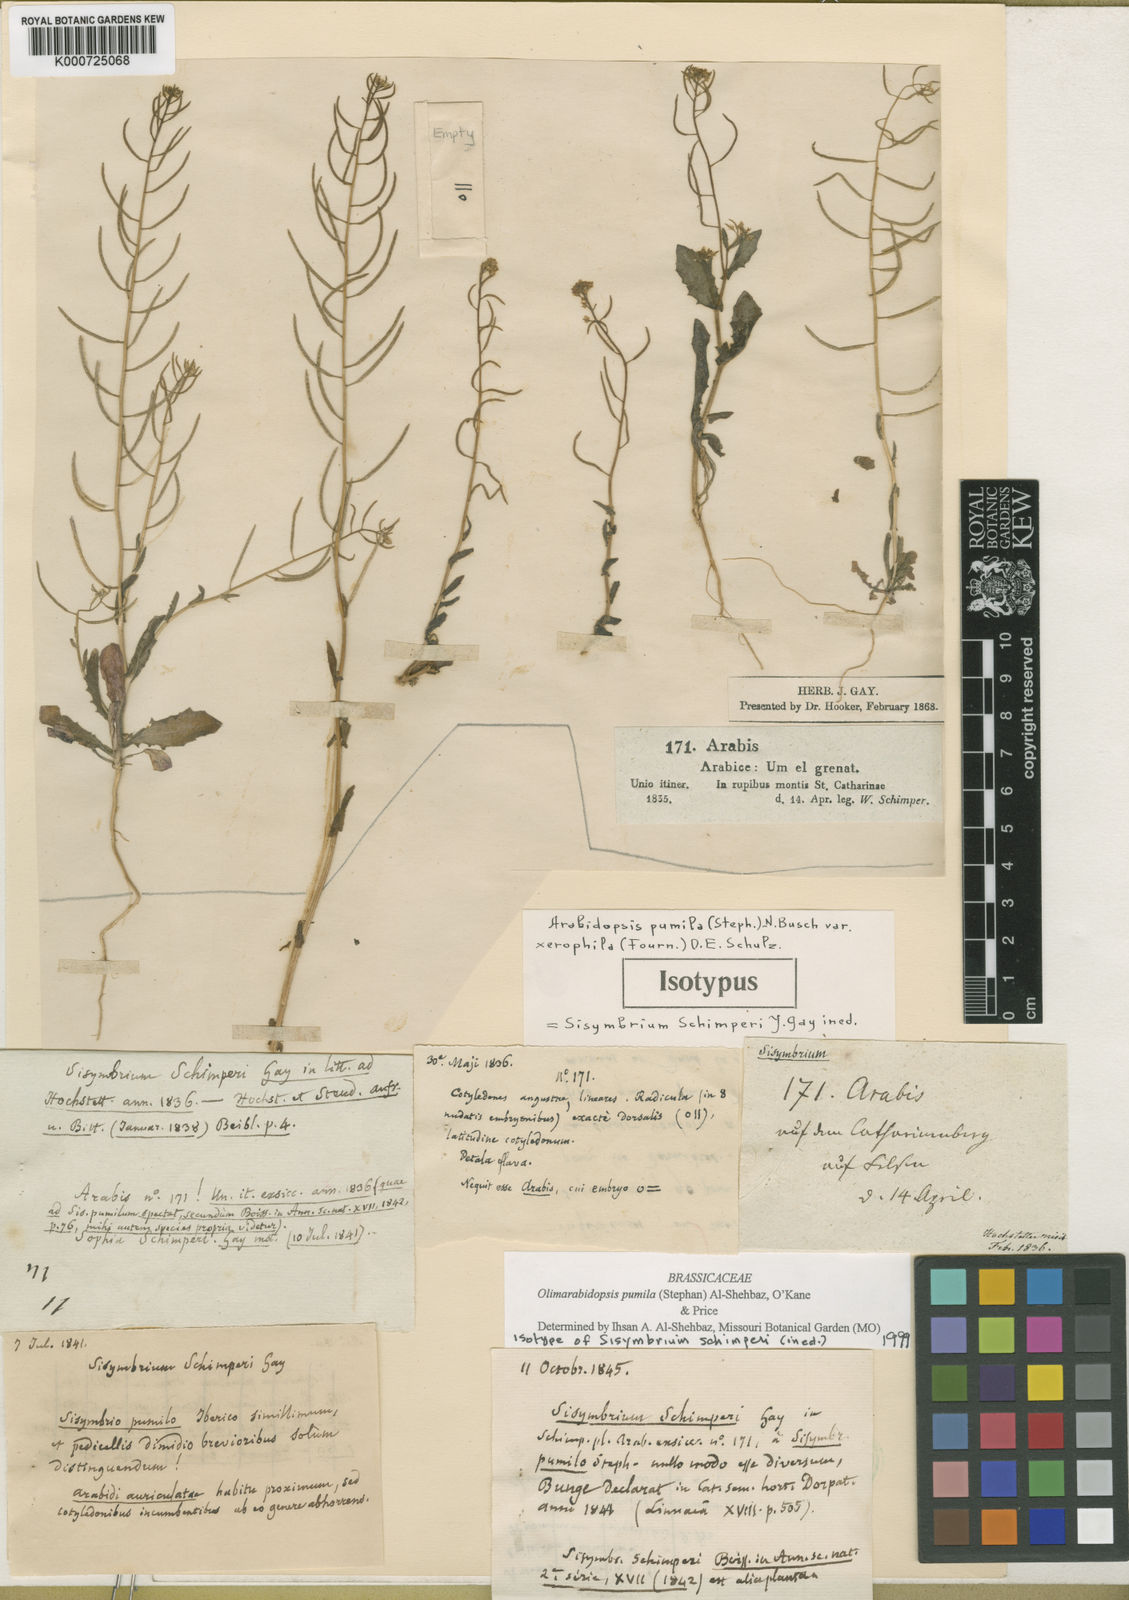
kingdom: Plantae
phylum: Tracheophyta
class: Magnoliopsida
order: Brassicales
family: Brassicaceae
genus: Olimarabidopsis
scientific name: Olimarabidopsis
